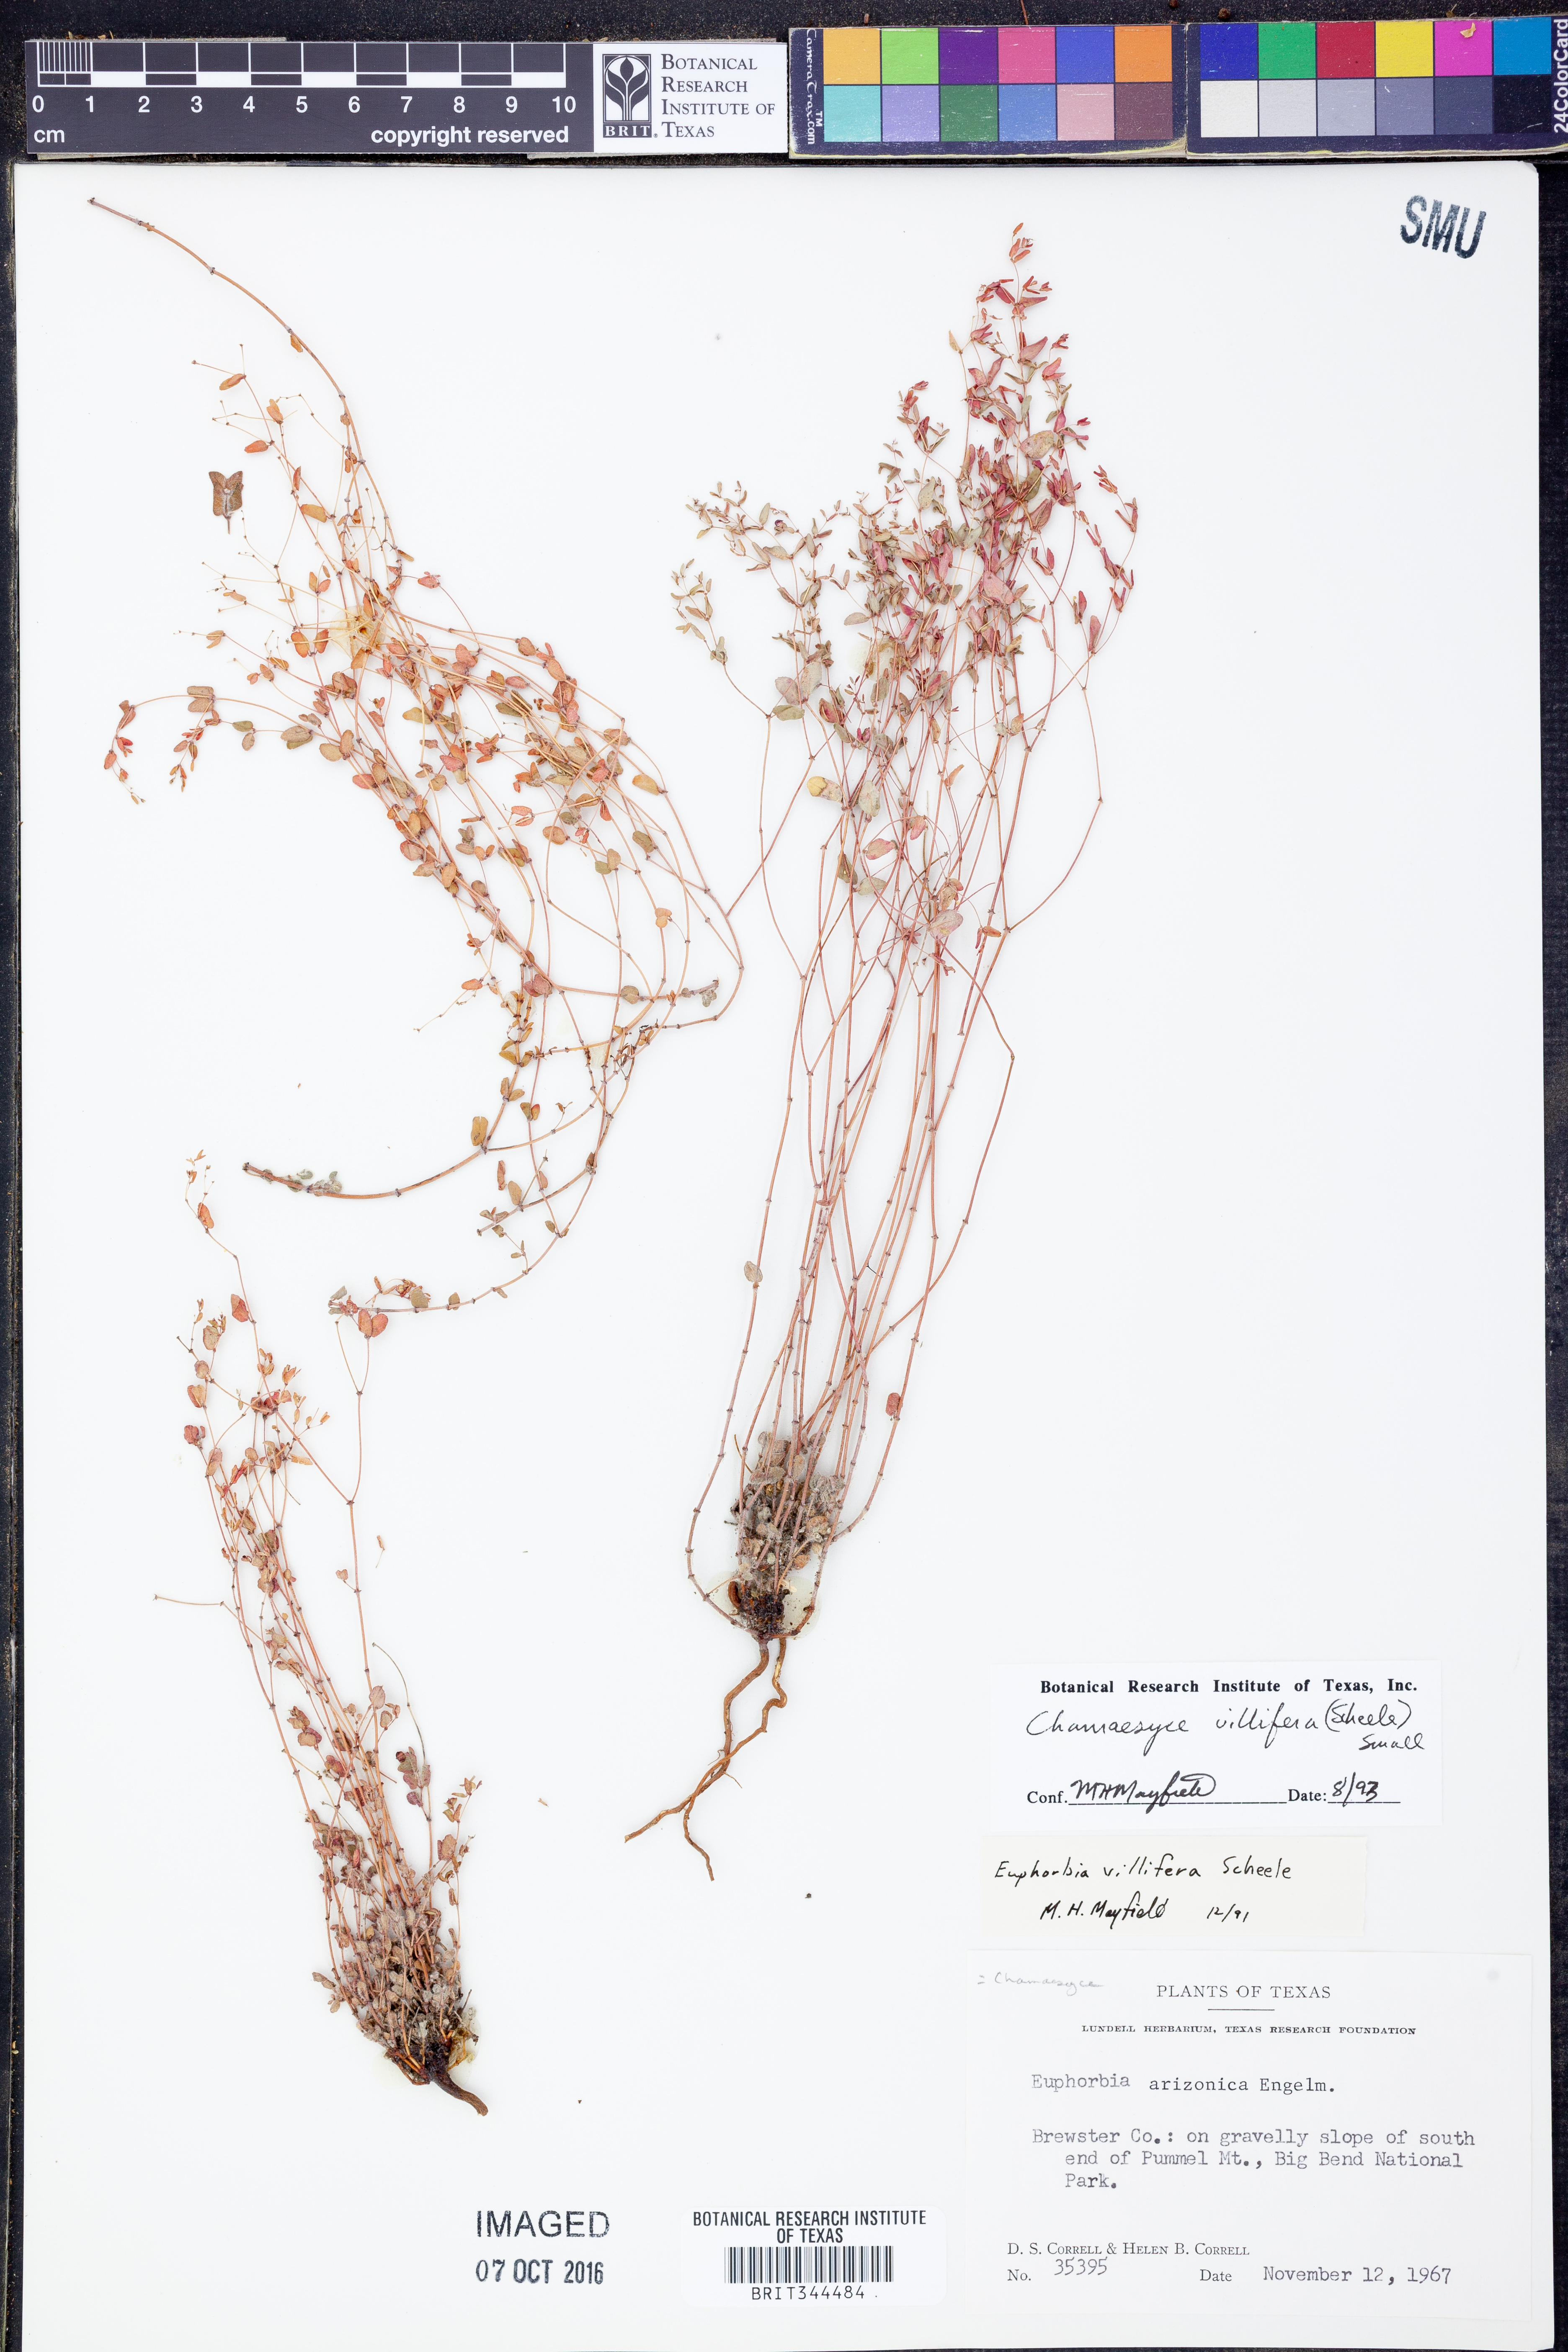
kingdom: Plantae
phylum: Tracheophyta
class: Magnoliopsida
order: Malpighiales
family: Euphorbiaceae
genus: Euphorbia
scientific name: Euphorbia villifera
